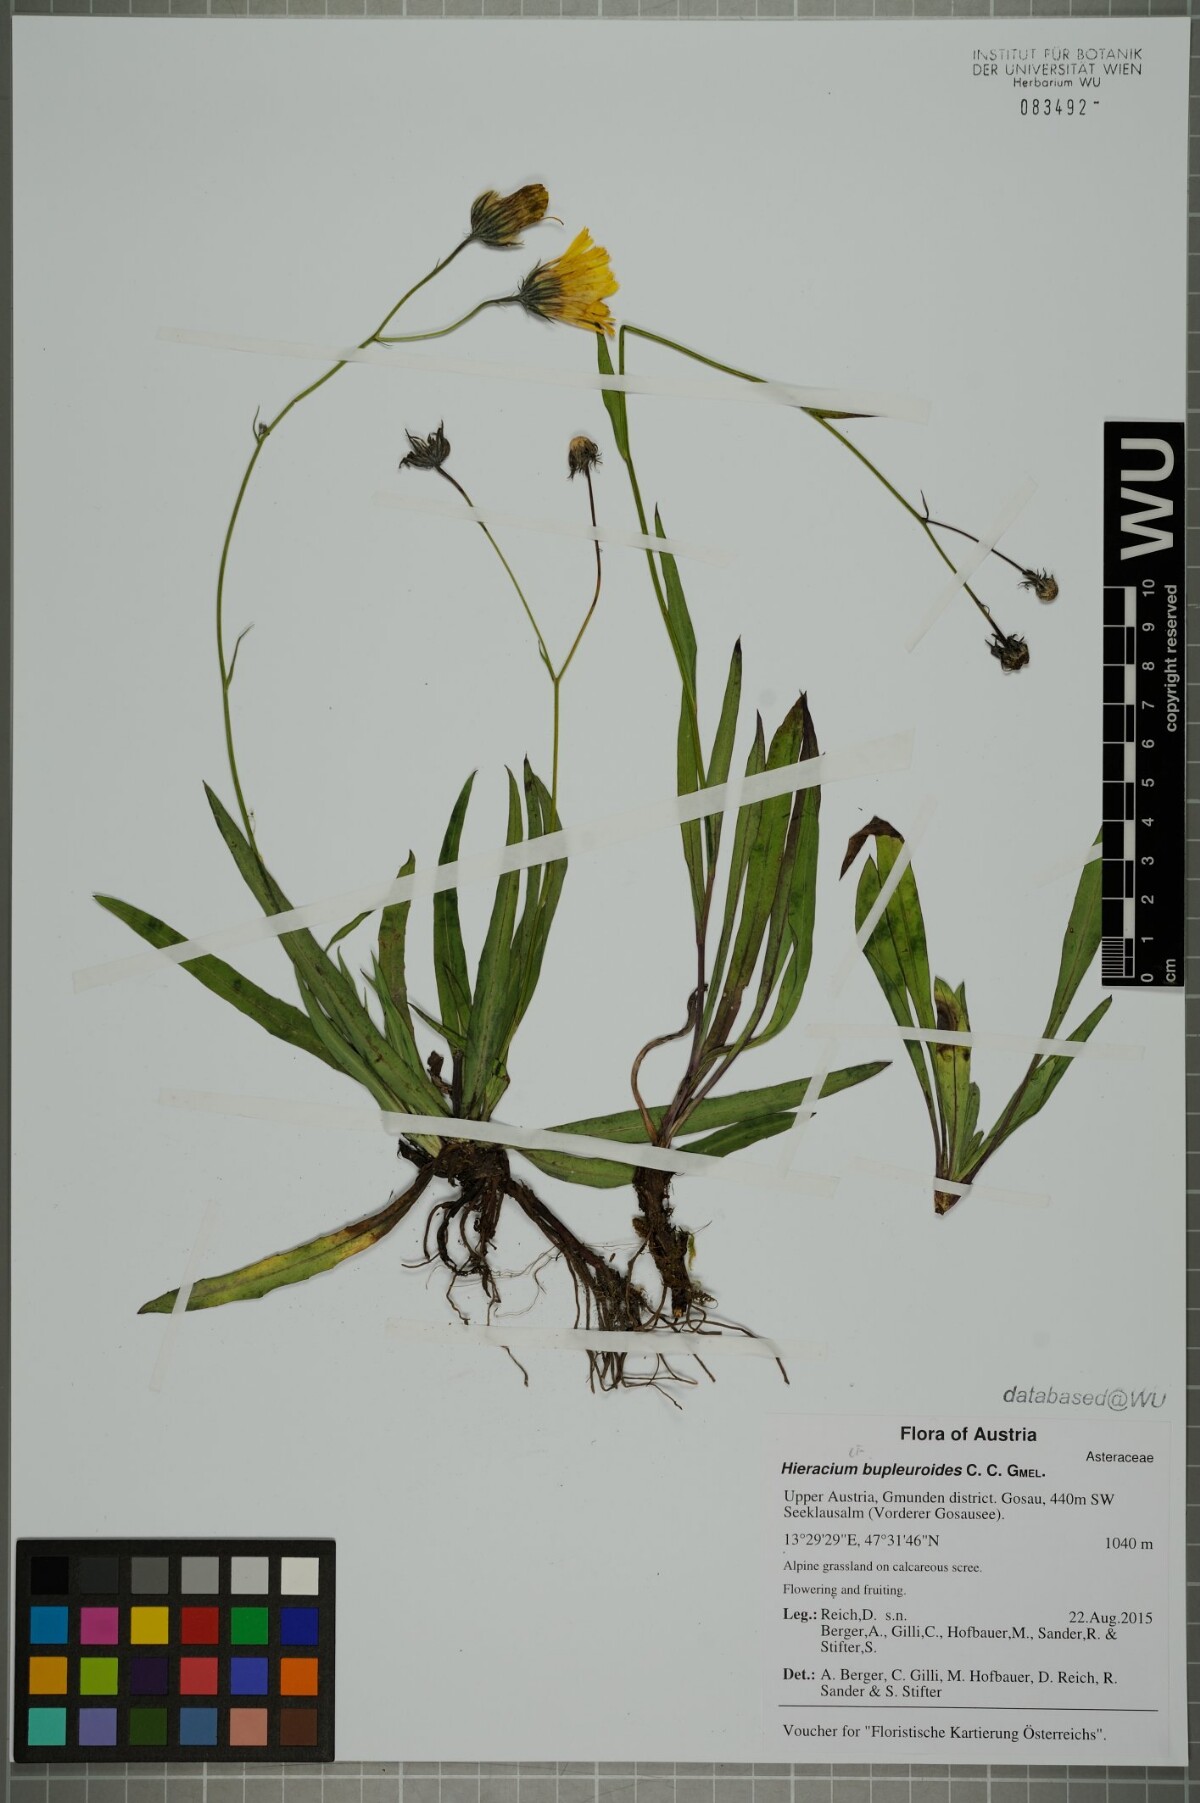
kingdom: Plantae
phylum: Tracheophyta
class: Magnoliopsida
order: Asterales
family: Asteraceae
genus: Hieracium
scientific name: Hieracium bupleuroides
